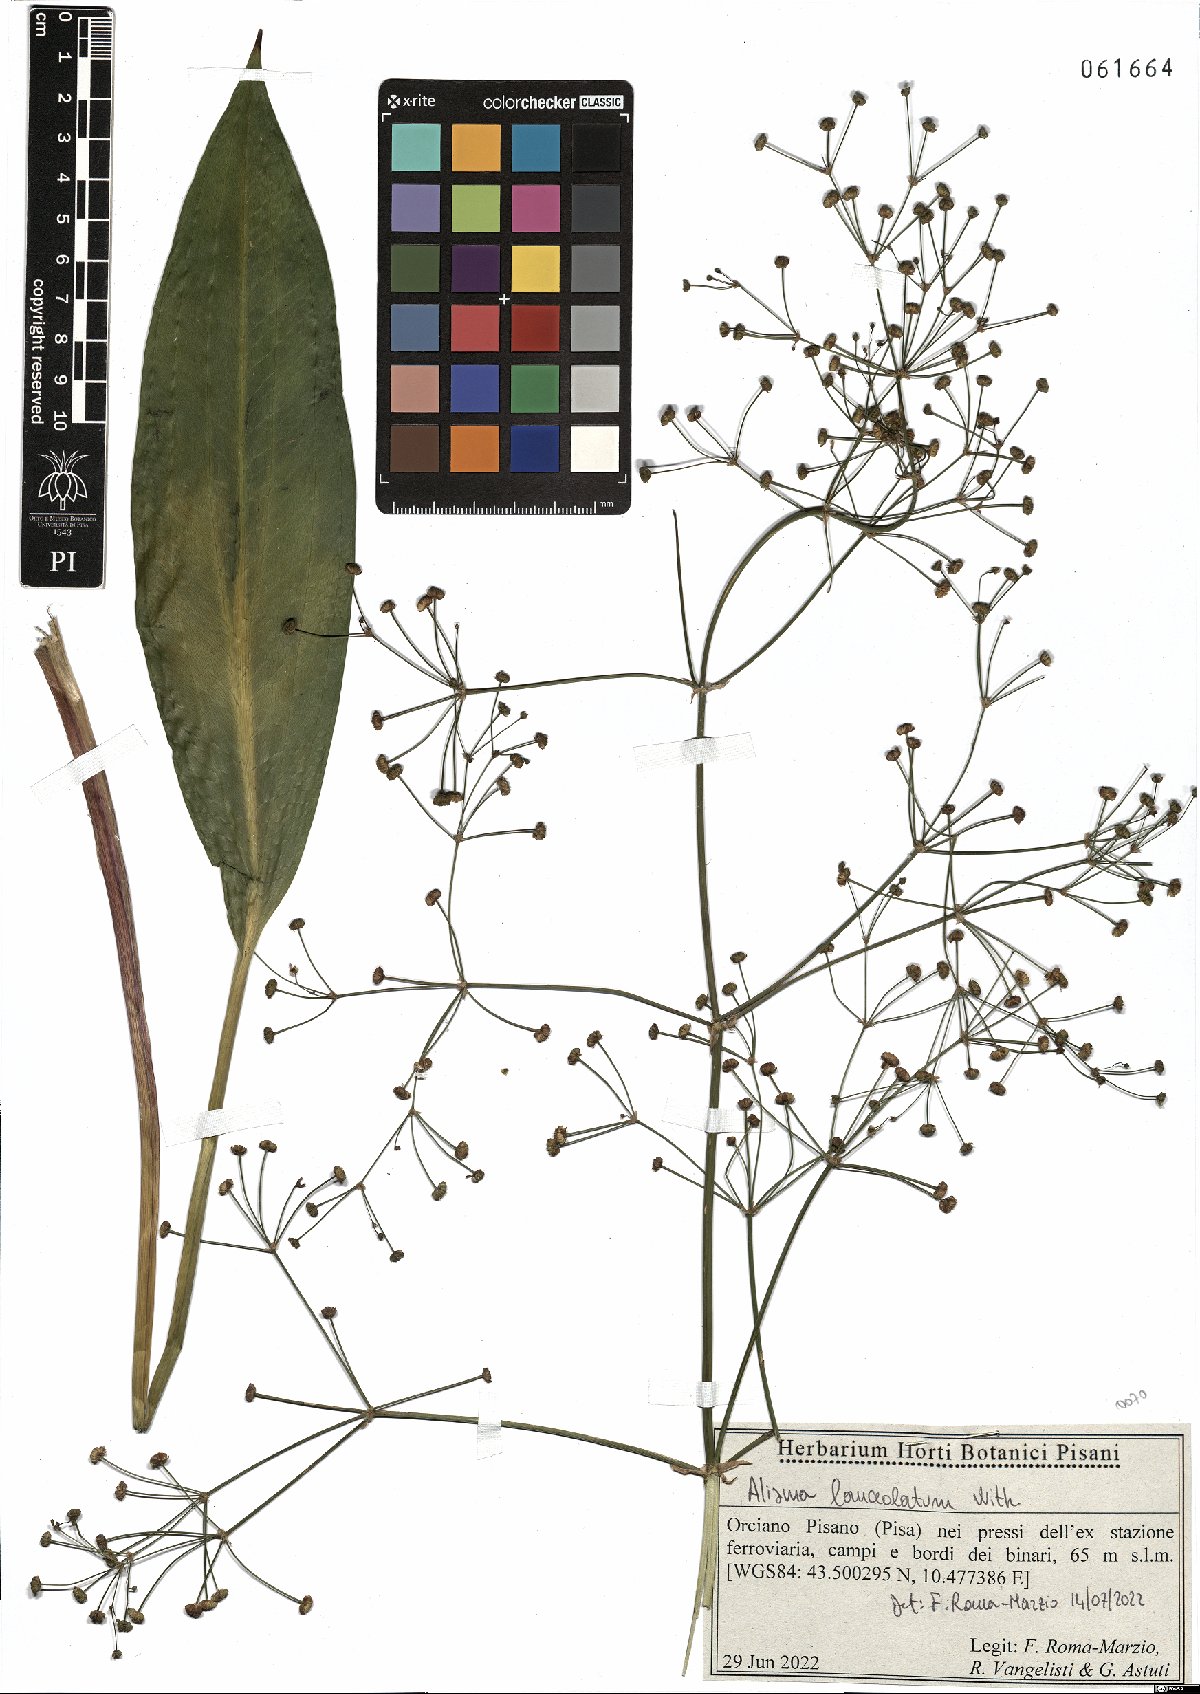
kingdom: Plantae
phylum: Tracheophyta
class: Liliopsida
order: Alismatales
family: Alismataceae
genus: Alisma
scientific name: Alisma lanceolatum
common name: Narrow-leaved water-plantain
